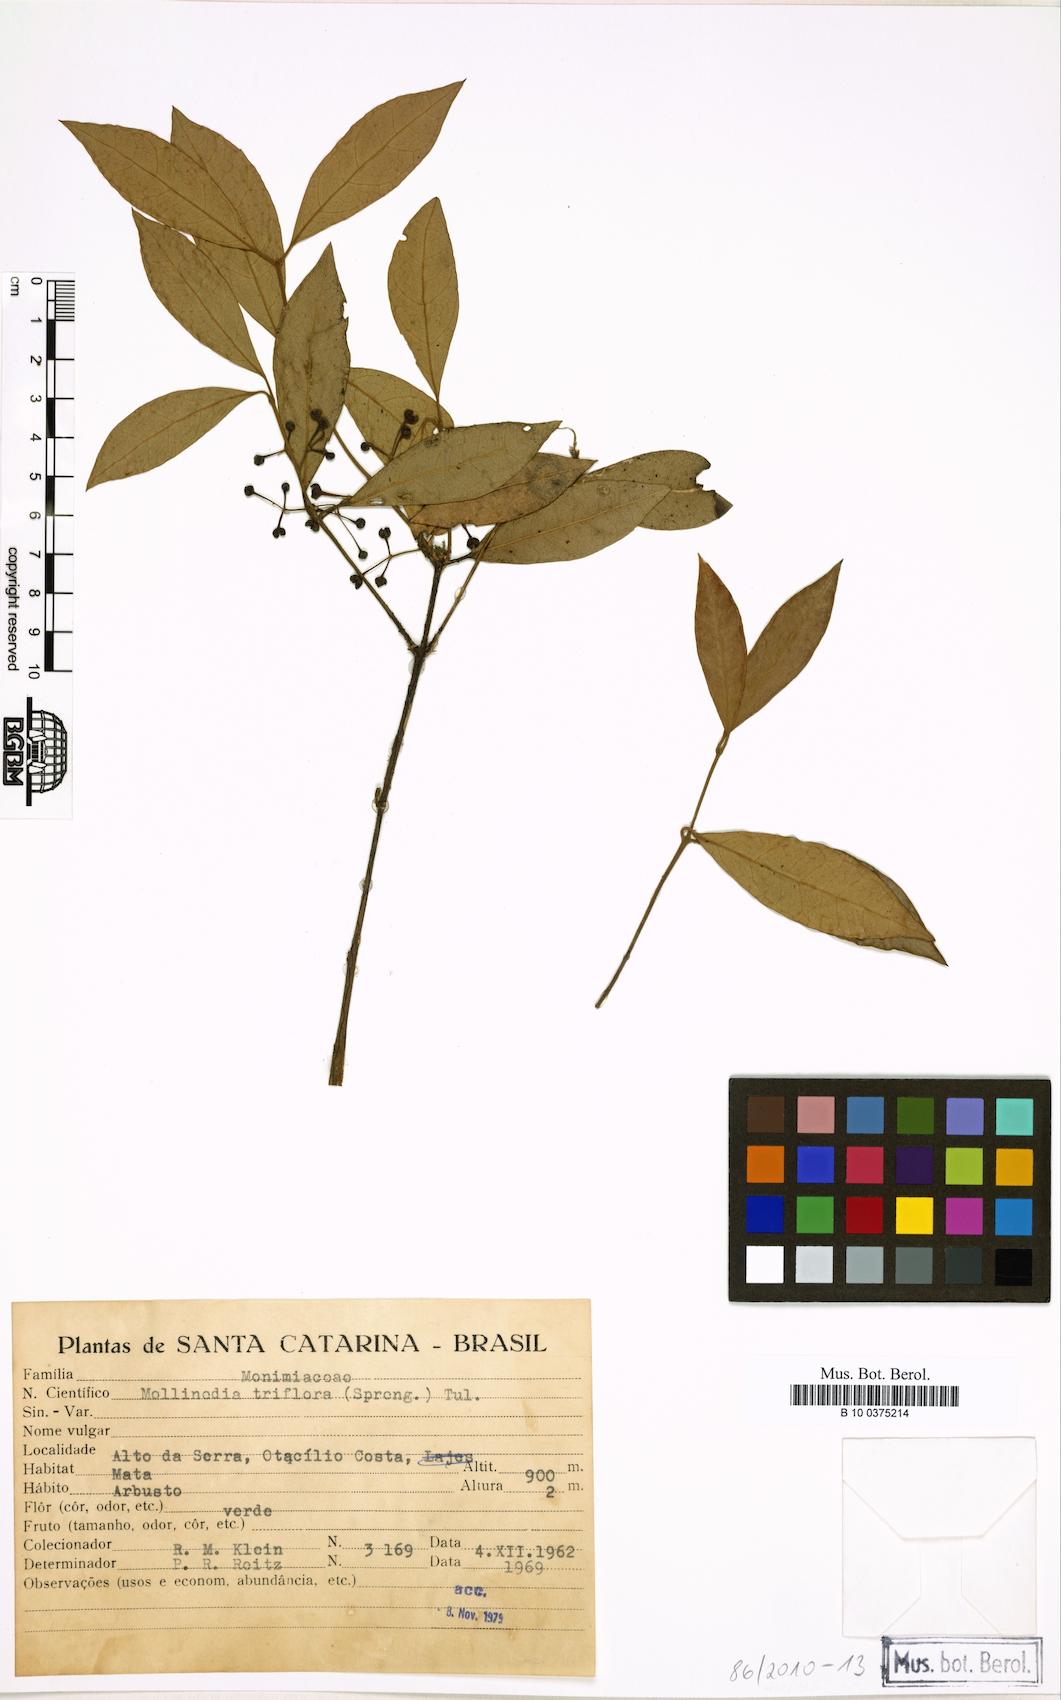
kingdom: Plantae
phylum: Tracheophyta
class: Magnoliopsida
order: Laurales
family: Monimiaceae
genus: Mollinedia
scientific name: Mollinedia triflora
